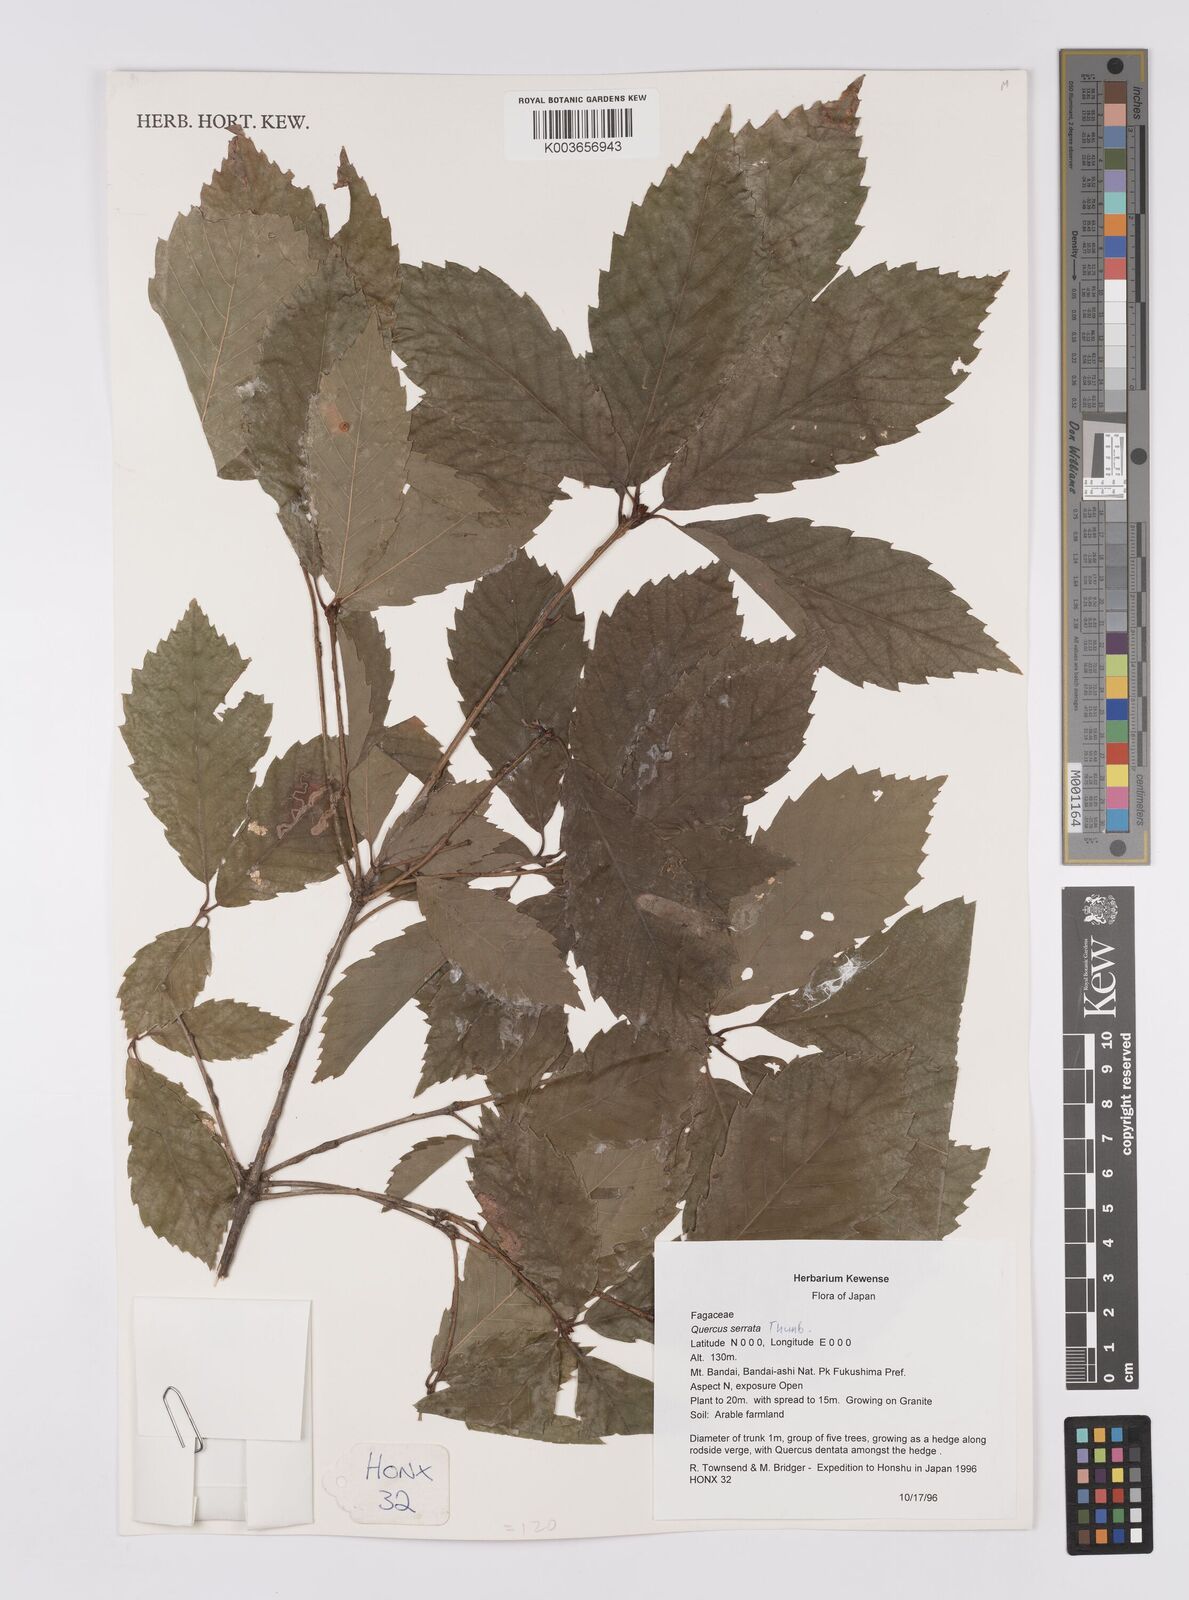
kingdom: Plantae
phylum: Tracheophyta
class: Magnoliopsida
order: Fagales
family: Fagaceae
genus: Quercus
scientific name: Quercus serrata
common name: Bao li
